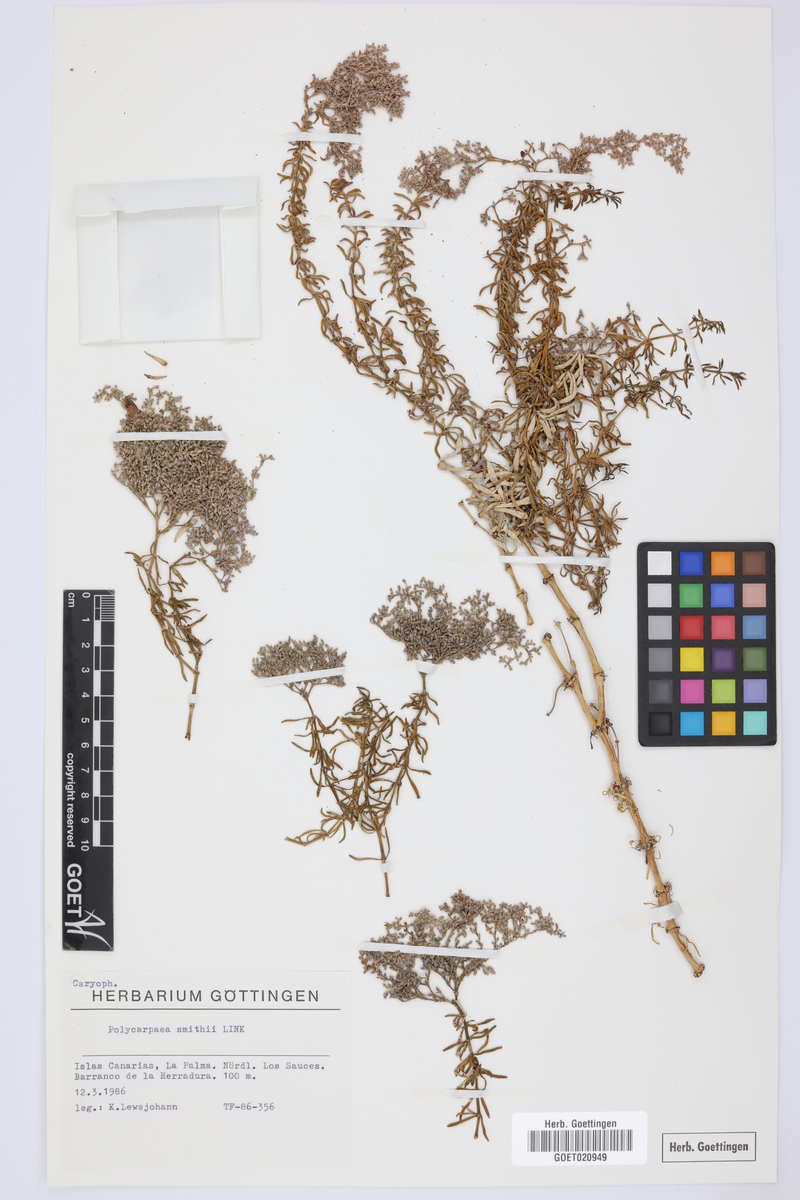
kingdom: Plantae
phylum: Tracheophyta
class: Magnoliopsida
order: Caryophyllales
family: Caryophyllaceae
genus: Polycarpaea
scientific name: Polycarpaea smithii
